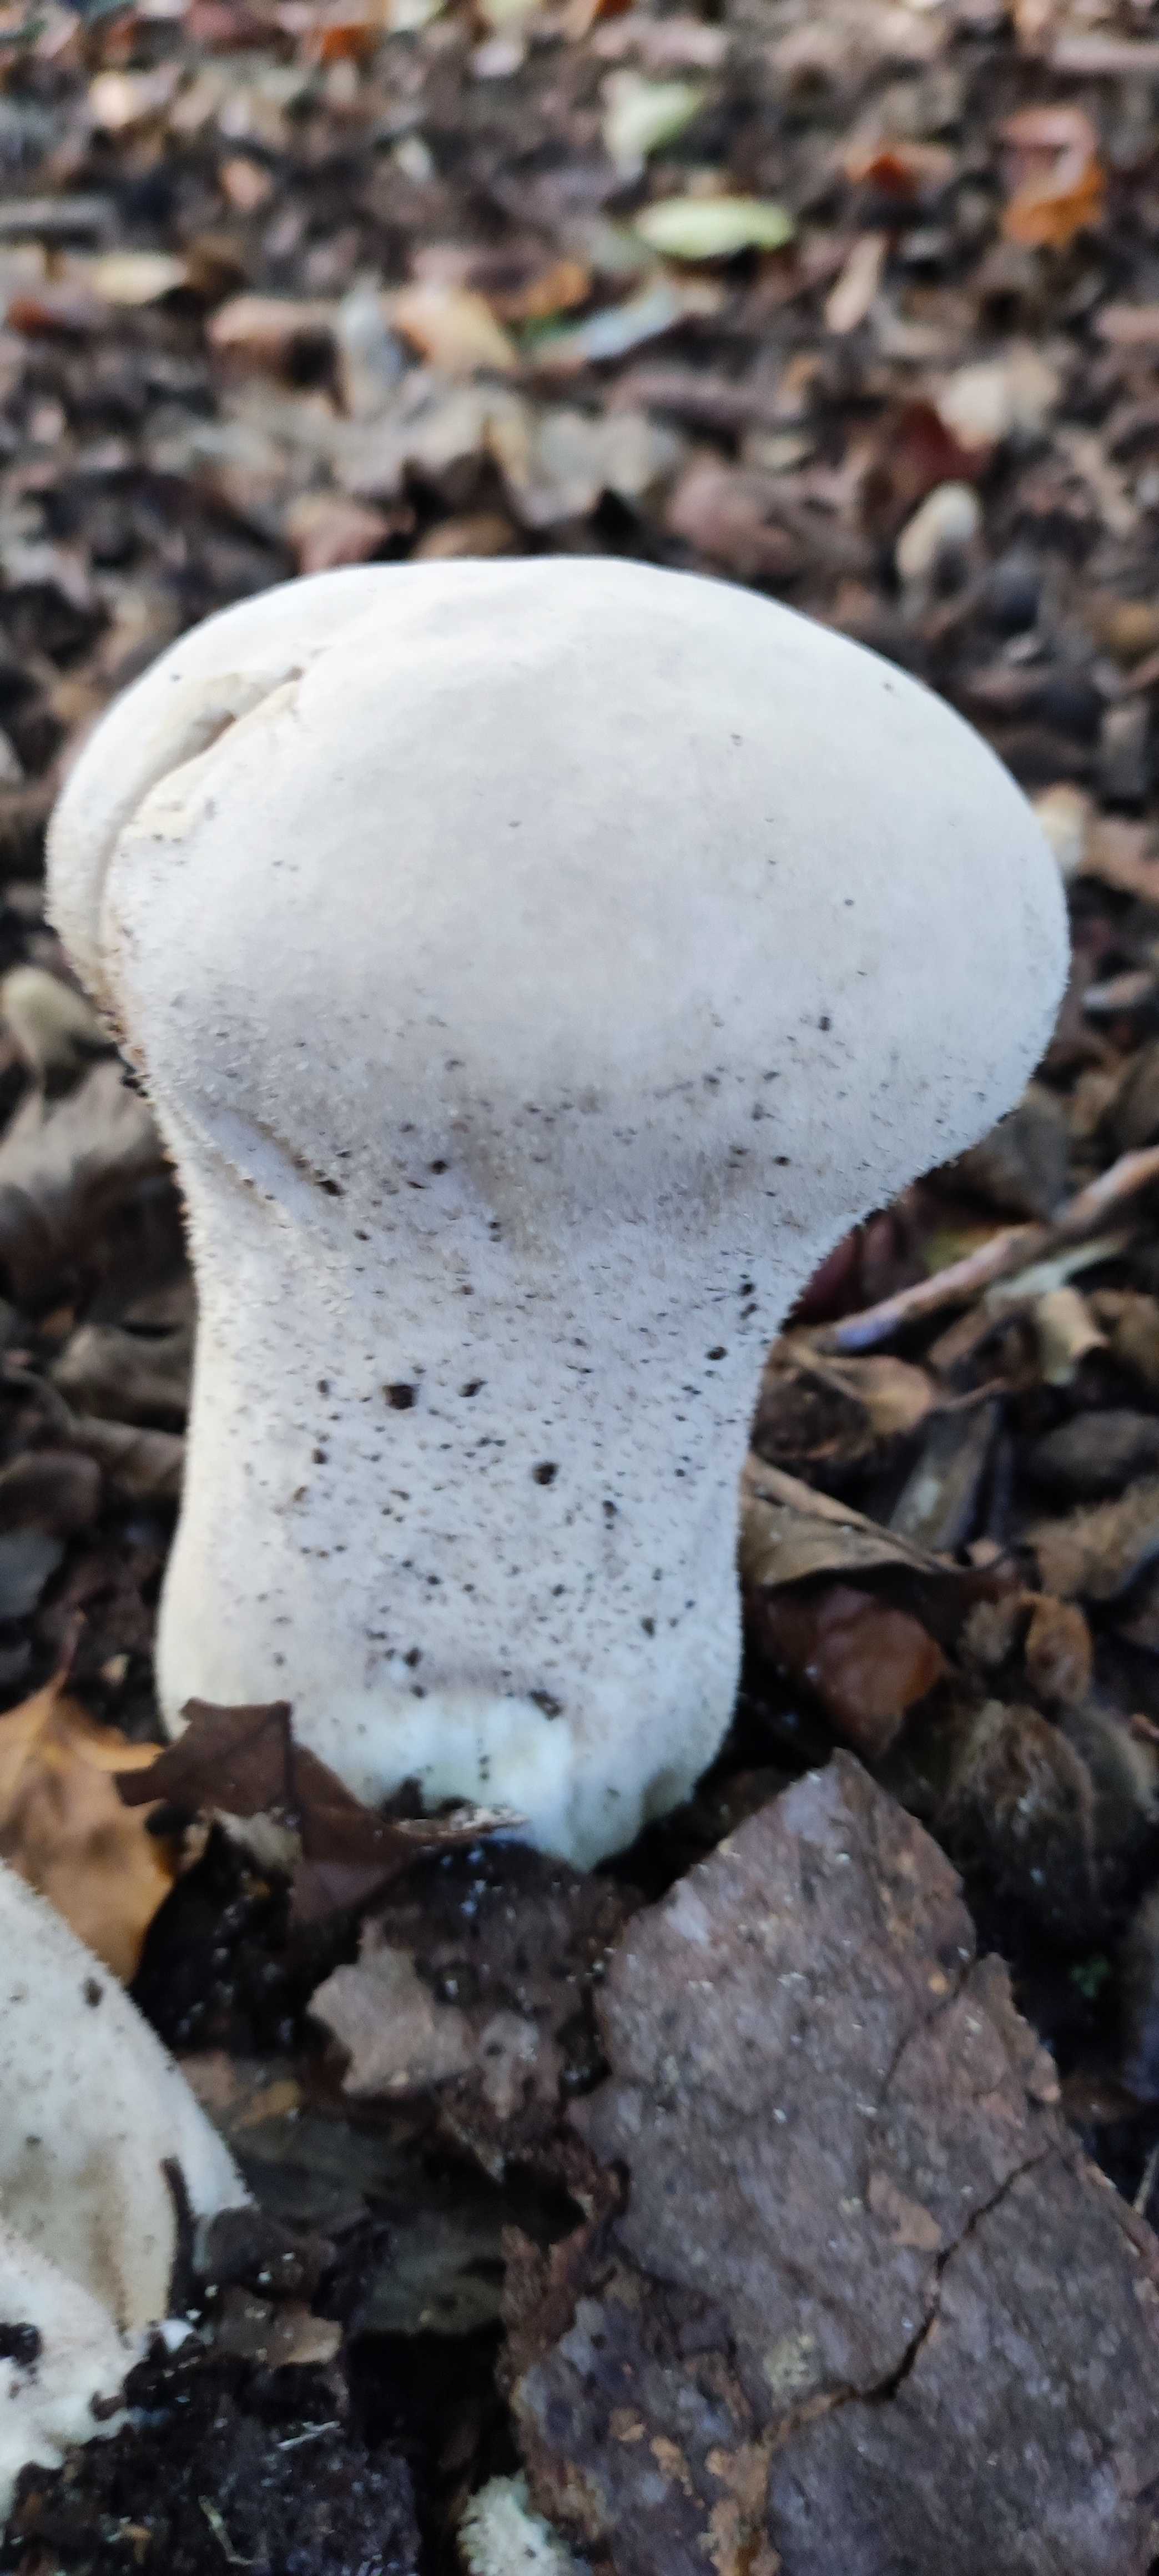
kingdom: Fungi
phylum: Basidiomycota
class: Agaricomycetes
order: Agaricales
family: Lycoperdaceae
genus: Lycoperdon
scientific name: Lycoperdon excipuliforme
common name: højstokket støvbold
